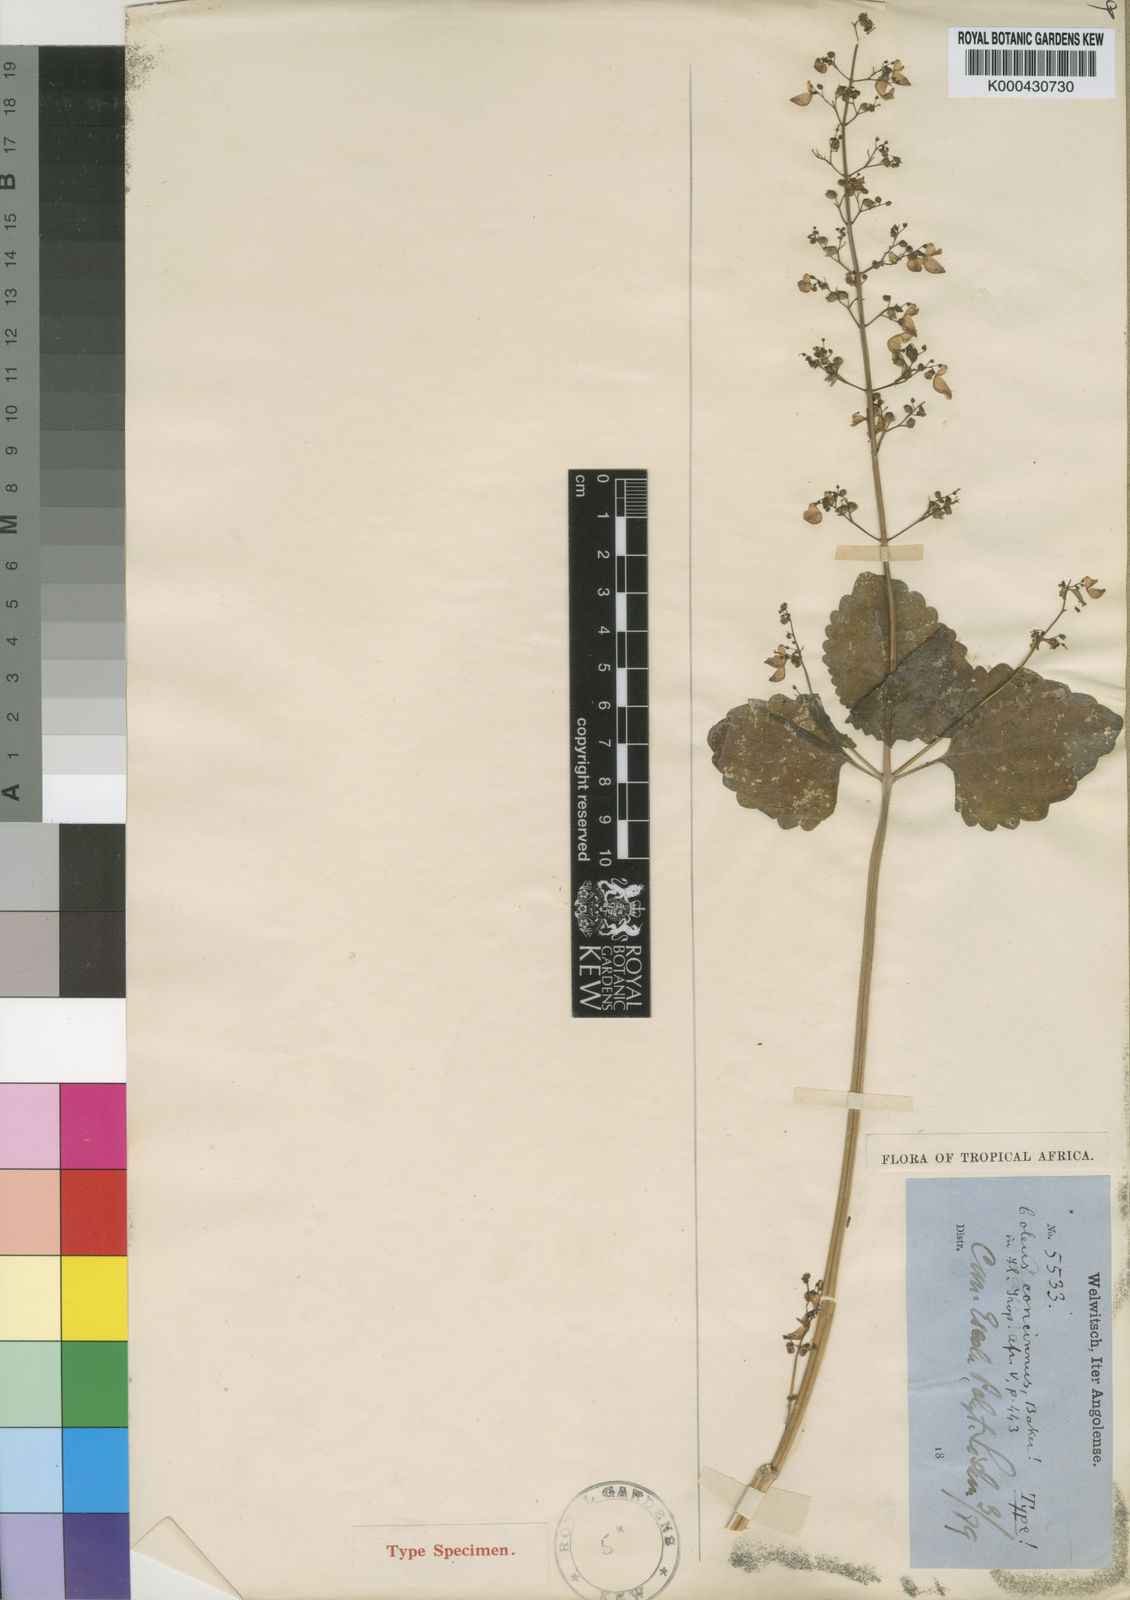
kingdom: Plantae
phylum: Tracheophyta
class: Magnoliopsida
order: Lamiales
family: Lamiaceae
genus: Coleus
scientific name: Coleus tenuicaulis
